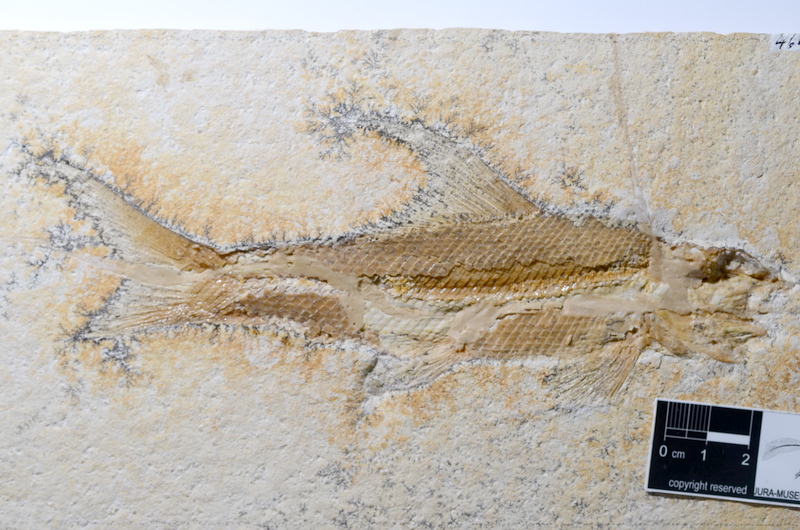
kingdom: Animalia
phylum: Chordata
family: Ophiopsiellidae
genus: Ophiopsiella
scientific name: Ophiopsiella procera
